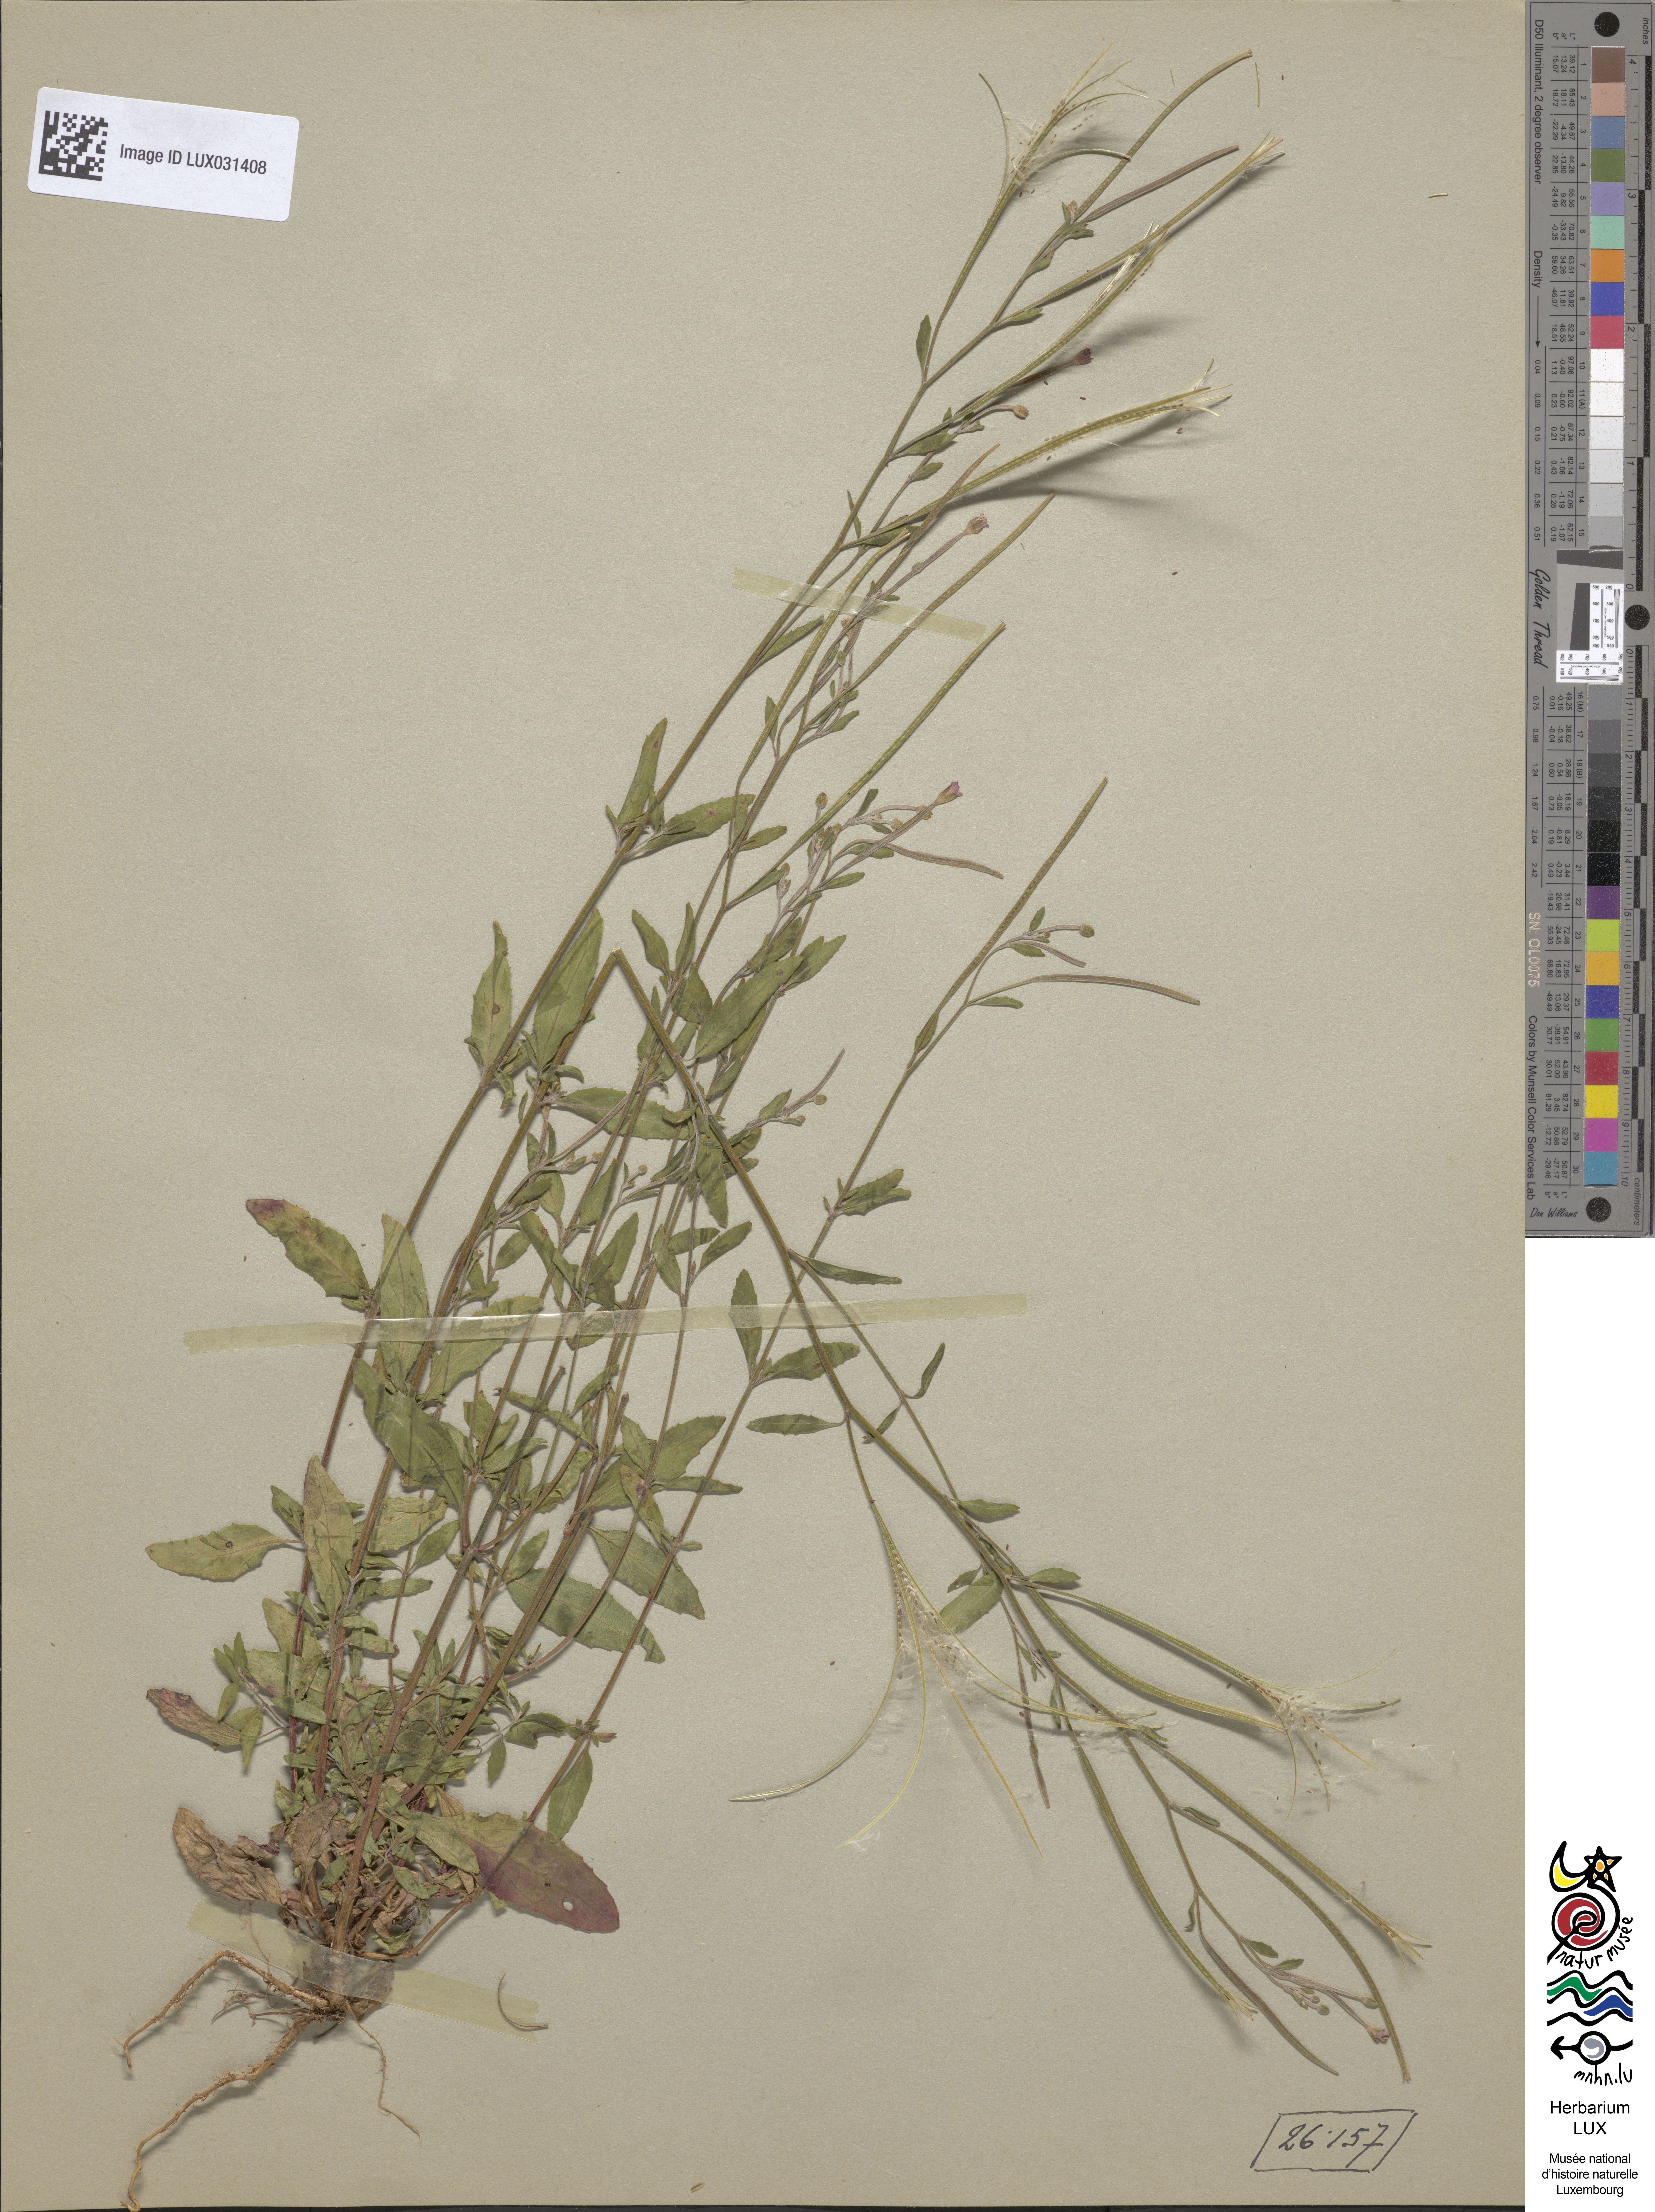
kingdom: Plantae
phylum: Tracheophyta
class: Magnoliopsida
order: Myrtales
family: Onagraceae
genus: Epilobium
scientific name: Epilobium lanceolatum
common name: Spear-leaved willowherb
